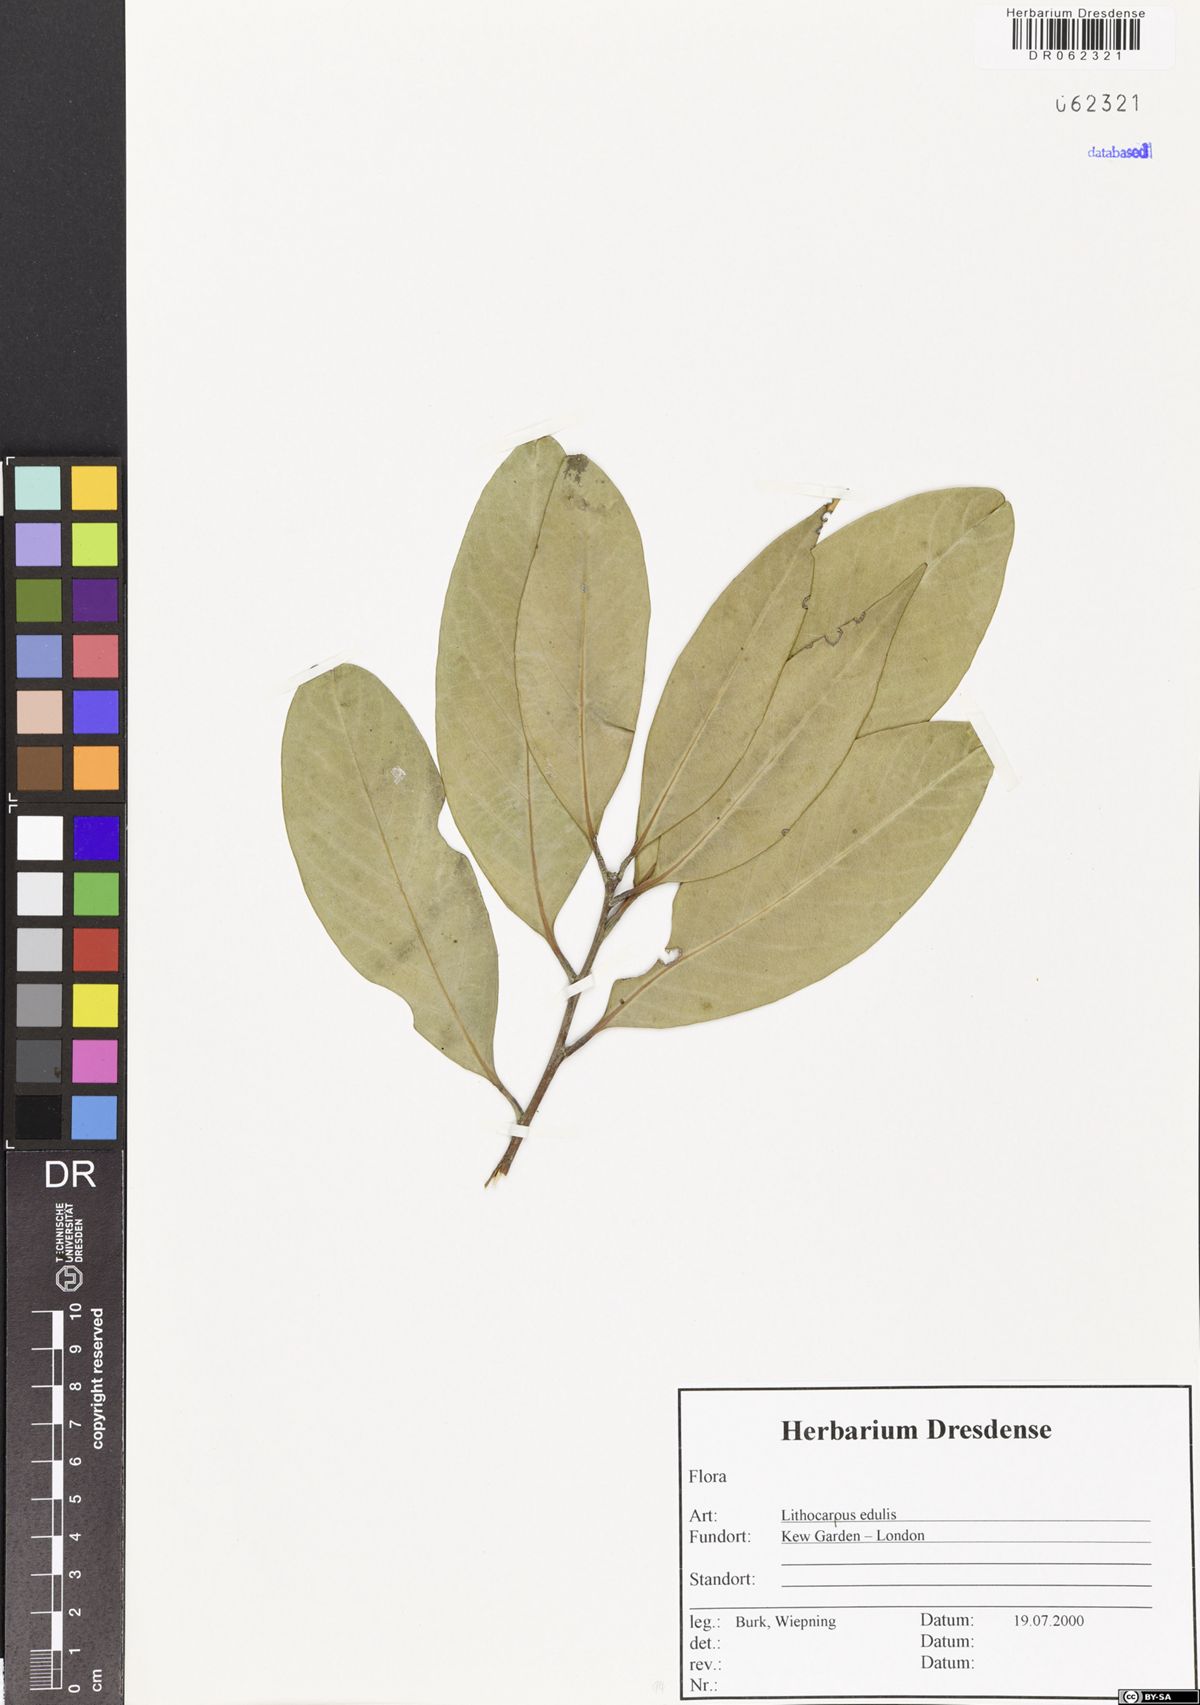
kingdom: Plantae
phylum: Tracheophyta
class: Magnoliopsida
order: Fagales
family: Fagaceae
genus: Lithocarpus
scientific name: Lithocarpus edulis
